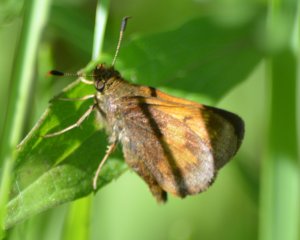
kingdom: Animalia
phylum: Arthropoda
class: Insecta
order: Lepidoptera
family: Hesperiidae
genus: Lon
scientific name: Lon hobomok
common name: Hobomok Skipper
